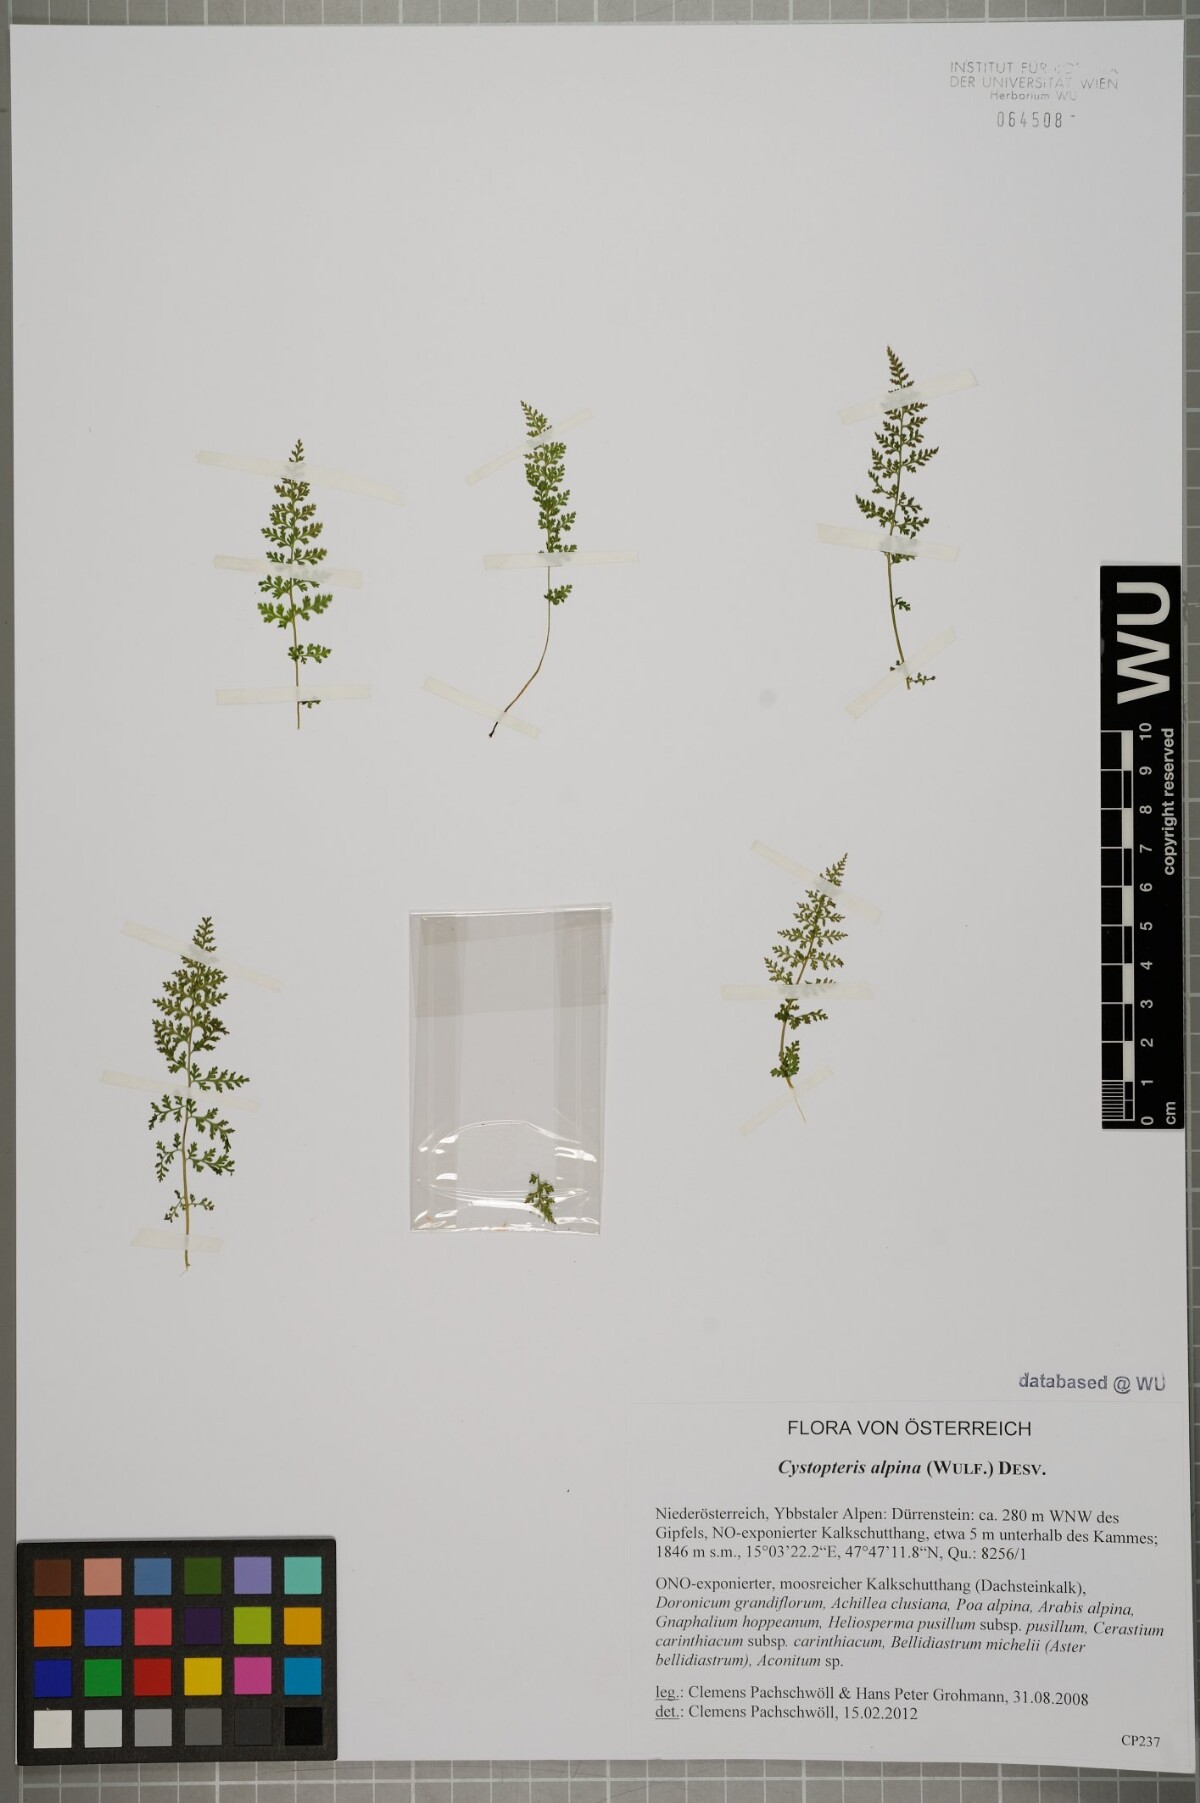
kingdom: Plantae
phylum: Tracheophyta
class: Polypodiopsida
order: Polypodiales
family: Cystopteridaceae
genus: Cystopteris
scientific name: Cystopteris alpina
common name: Alpine bladder-fern
